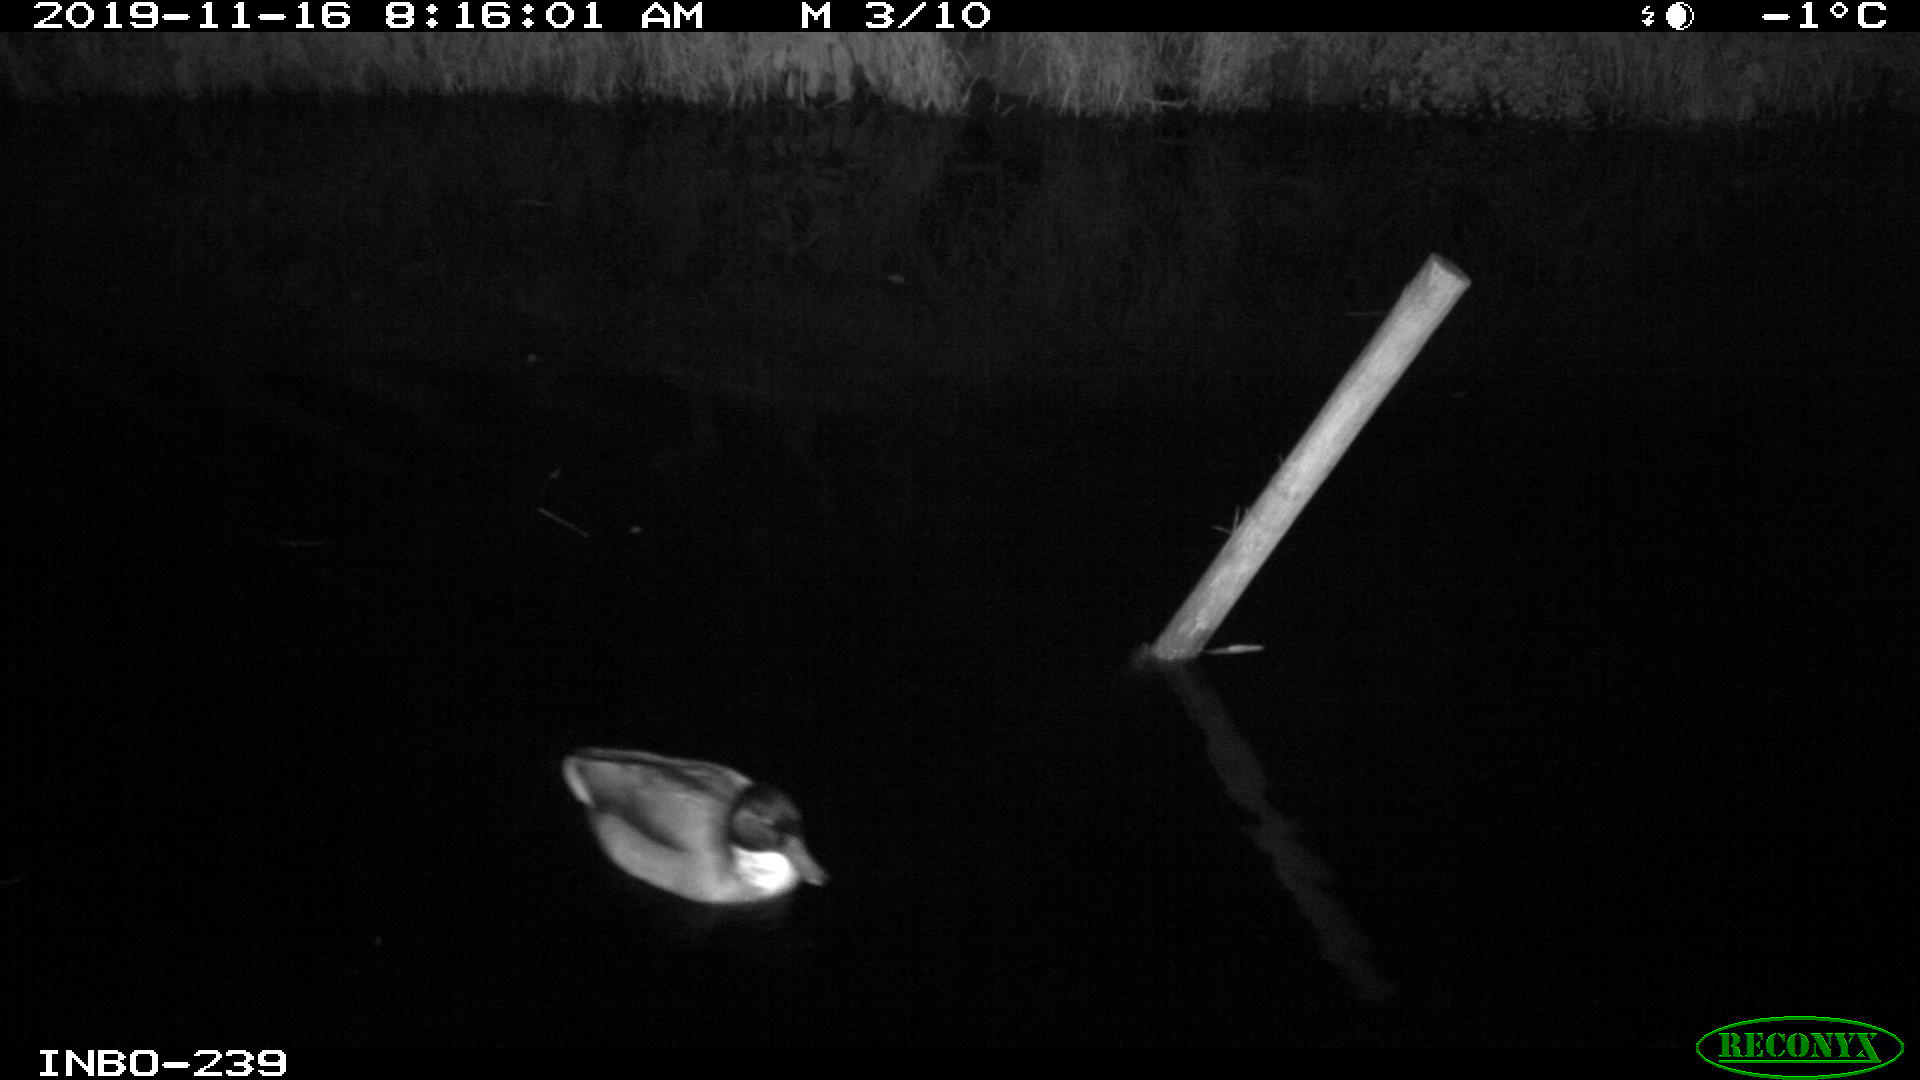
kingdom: Animalia
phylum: Chordata
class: Aves
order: Gruiformes
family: Rallidae
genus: Gallinula
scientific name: Gallinula chloropus
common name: Common moorhen
